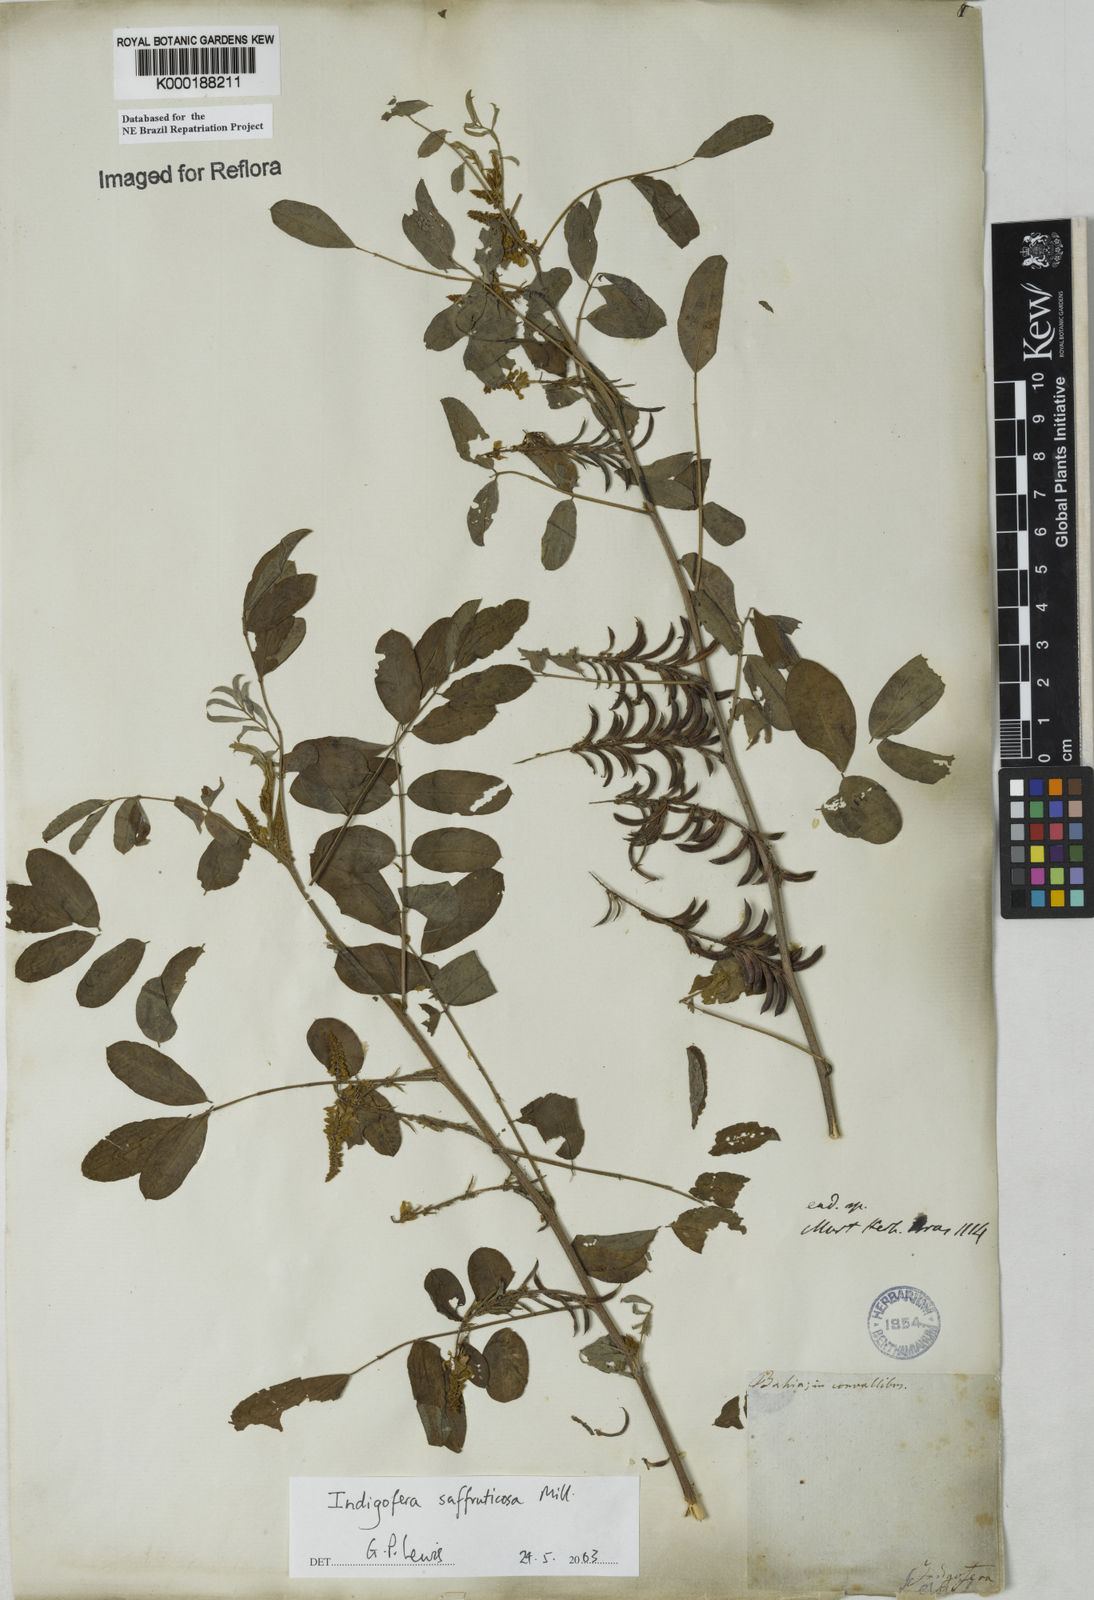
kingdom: Plantae
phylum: Tracheophyta
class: Magnoliopsida
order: Fabales
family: Fabaceae
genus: Indigofera
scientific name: Indigofera suffruticosa
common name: Anil de pasto
